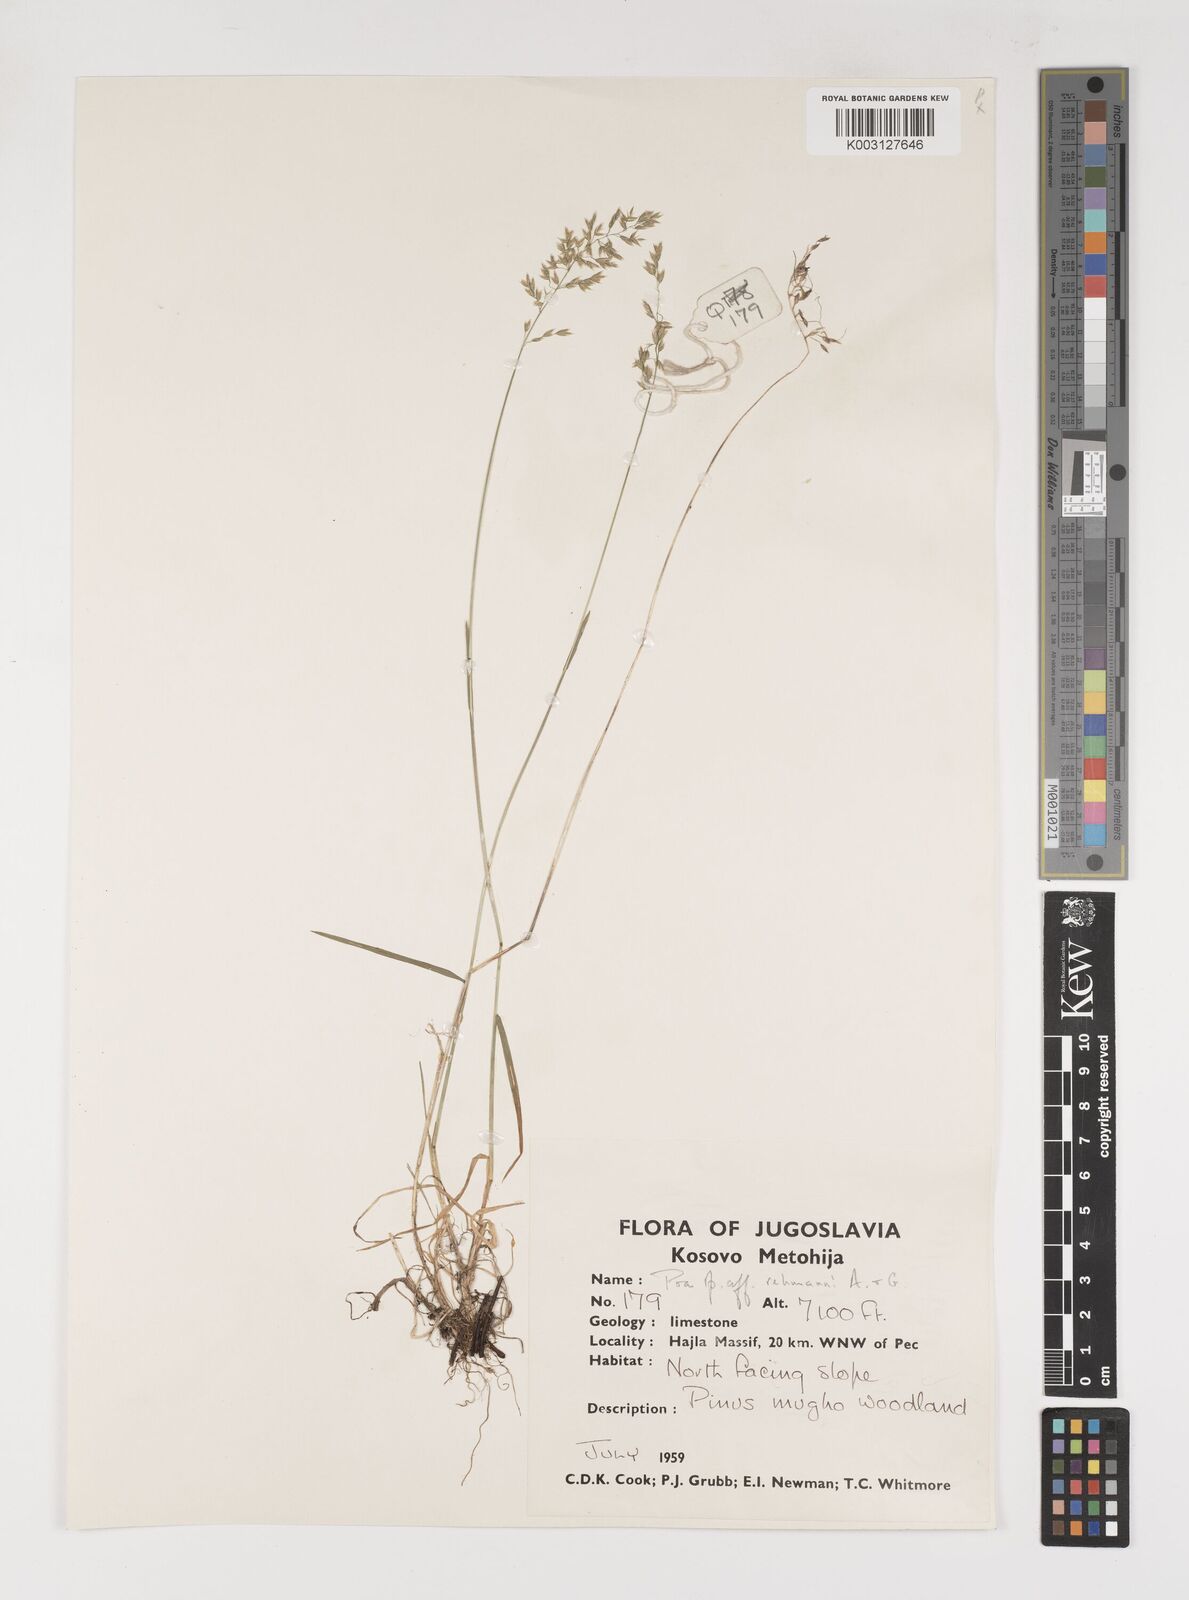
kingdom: Plantae
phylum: Tracheophyta
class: Liliopsida
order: Poales
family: Poaceae
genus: Poa
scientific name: Poa
